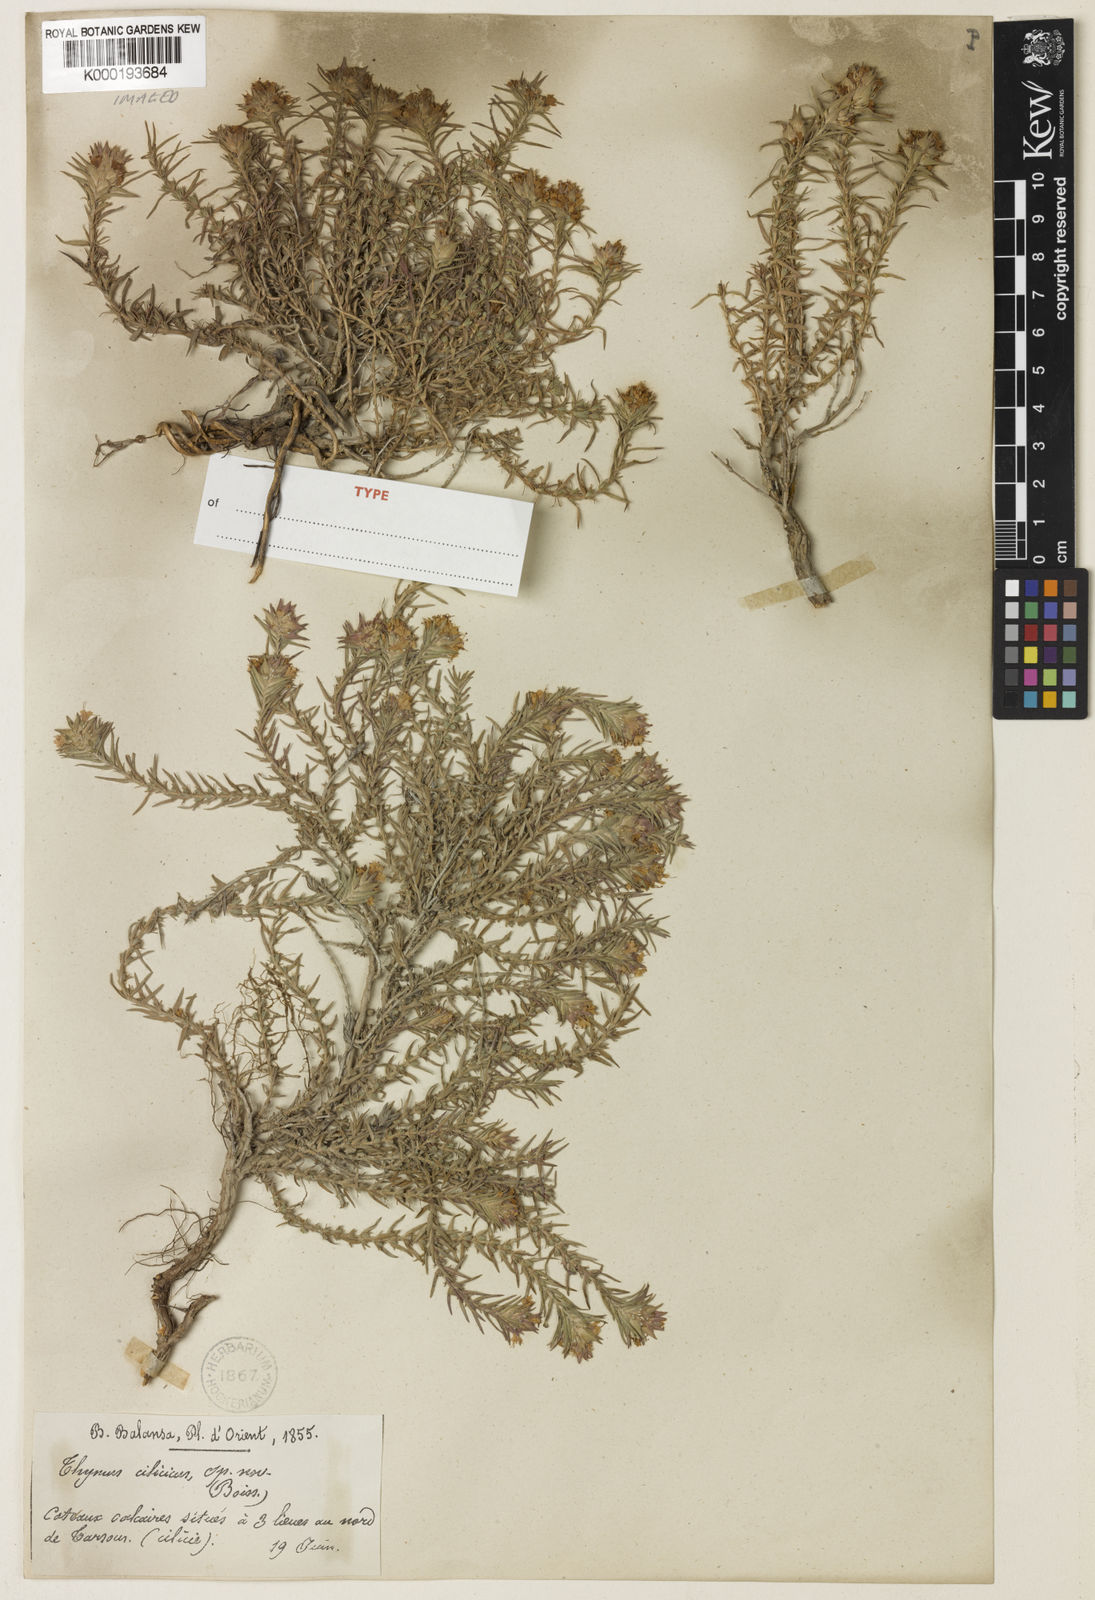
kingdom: Plantae
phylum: Tracheophyta
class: Magnoliopsida
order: Lamiales
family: Lamiaceae
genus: Thymus
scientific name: Thymus cilicicus
